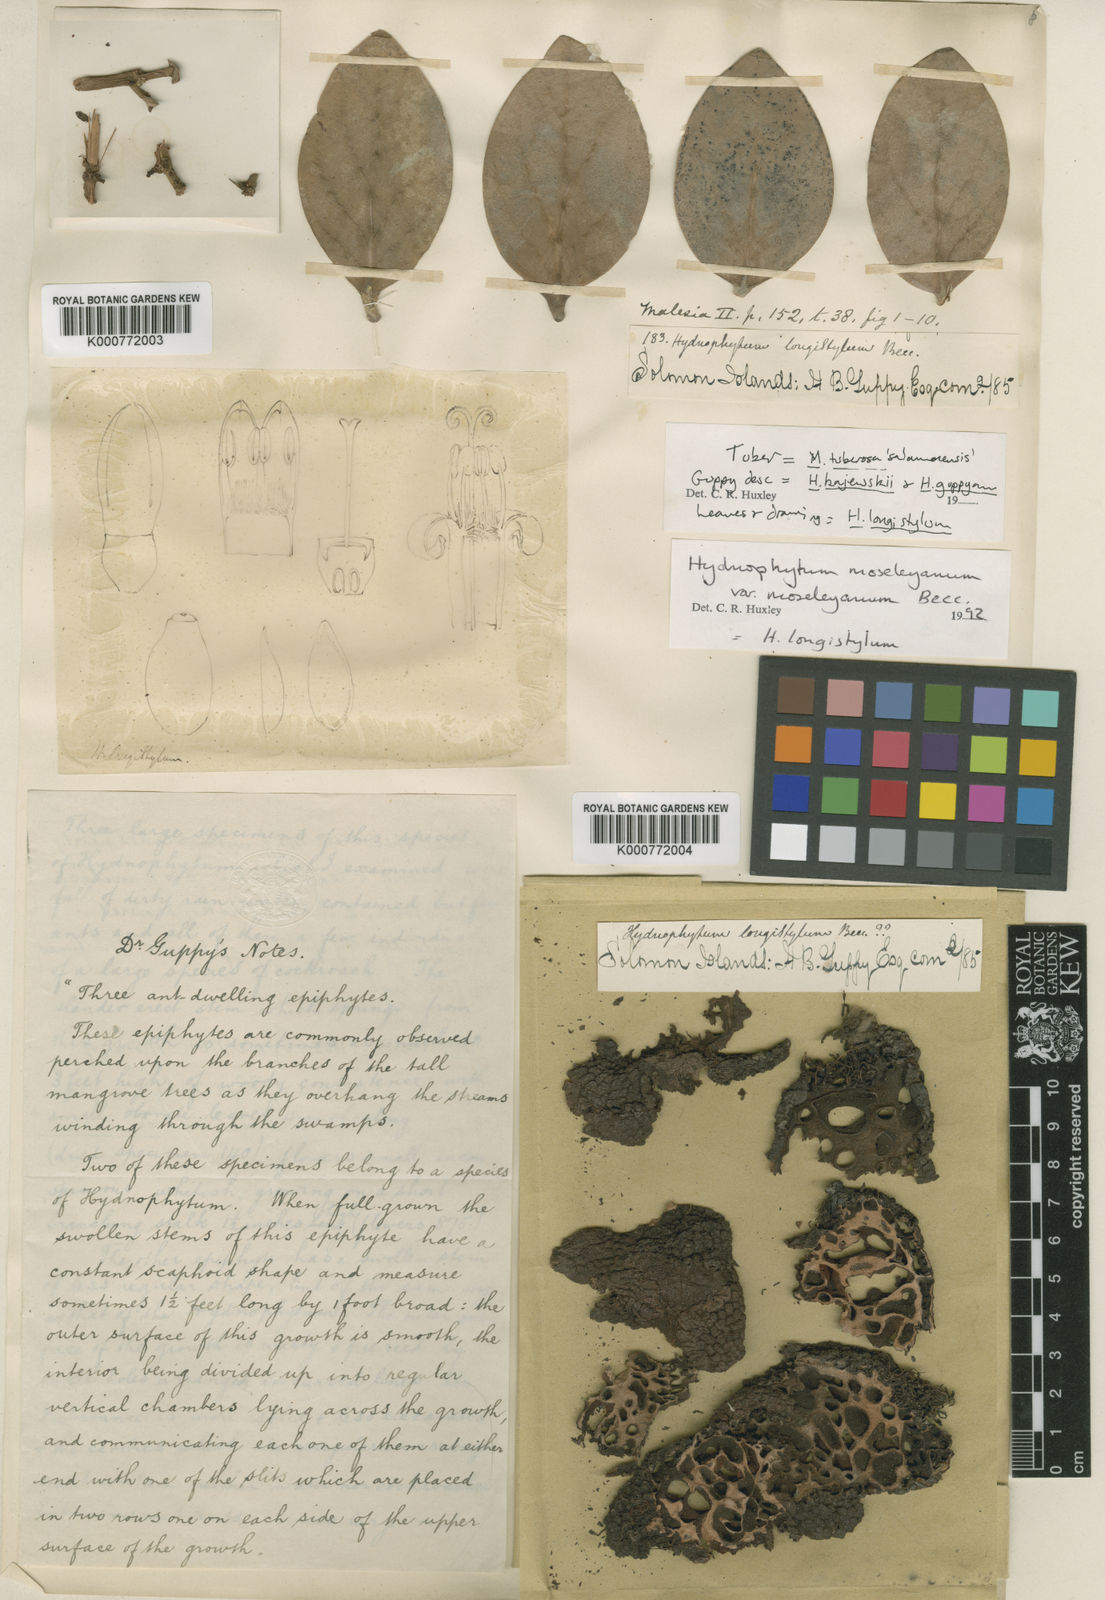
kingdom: Plantae
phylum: Tracheophyta
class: Magnoliopsida
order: Gentianales
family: Rubiaceae
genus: Hydnophytum
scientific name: Hydnophytum moseleyanum
